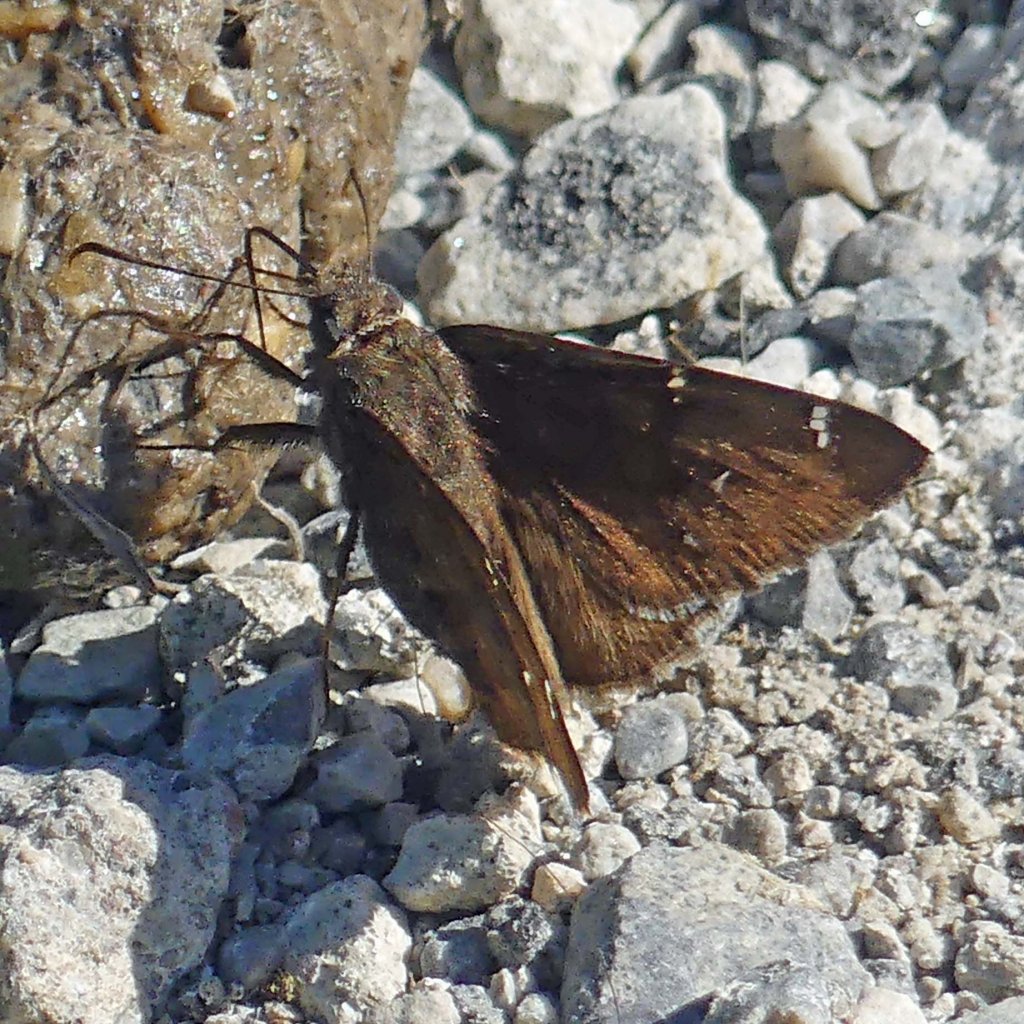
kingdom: Animalia
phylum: Arthropoda
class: Insecta
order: Lepidoptera
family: Hesperiidae
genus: Autochton
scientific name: Autochton
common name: Northern Cloudywing
